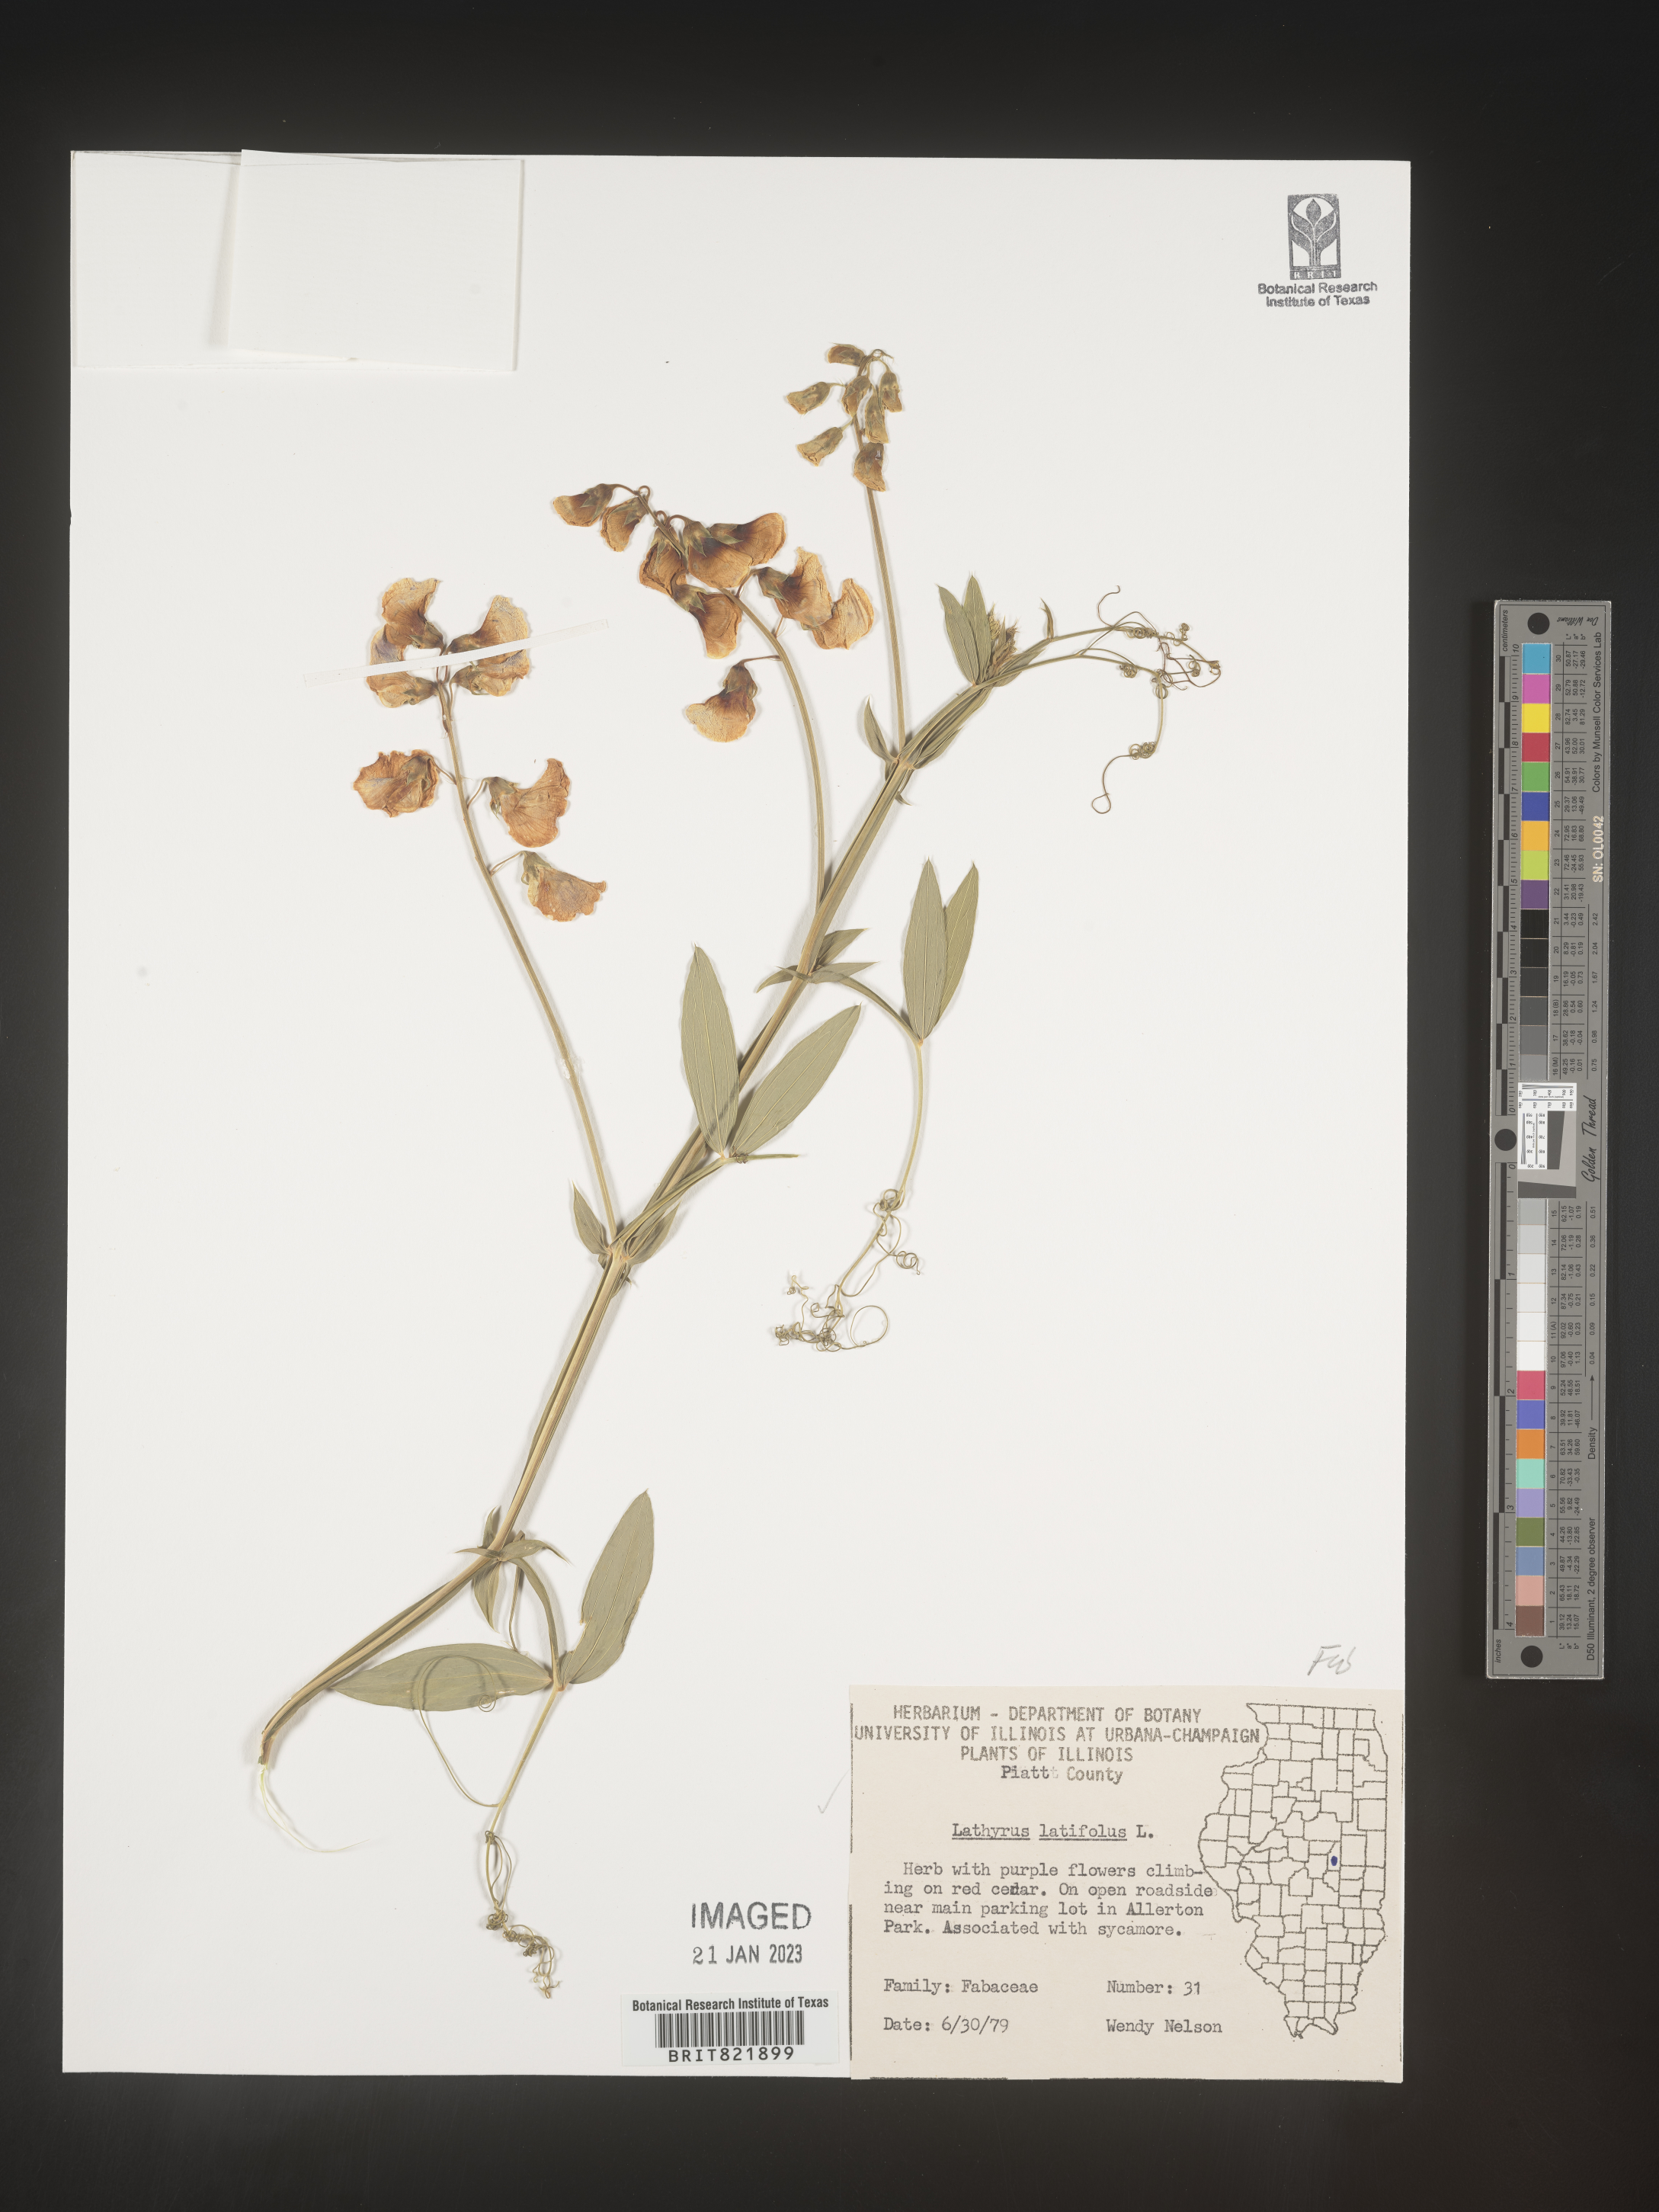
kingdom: Plantae
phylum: Tracheophyta
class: Magnoliopsida
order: Fabales
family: Fabaceae
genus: Lathyrus
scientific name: Lathyrus latifolius
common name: Perennial pea
